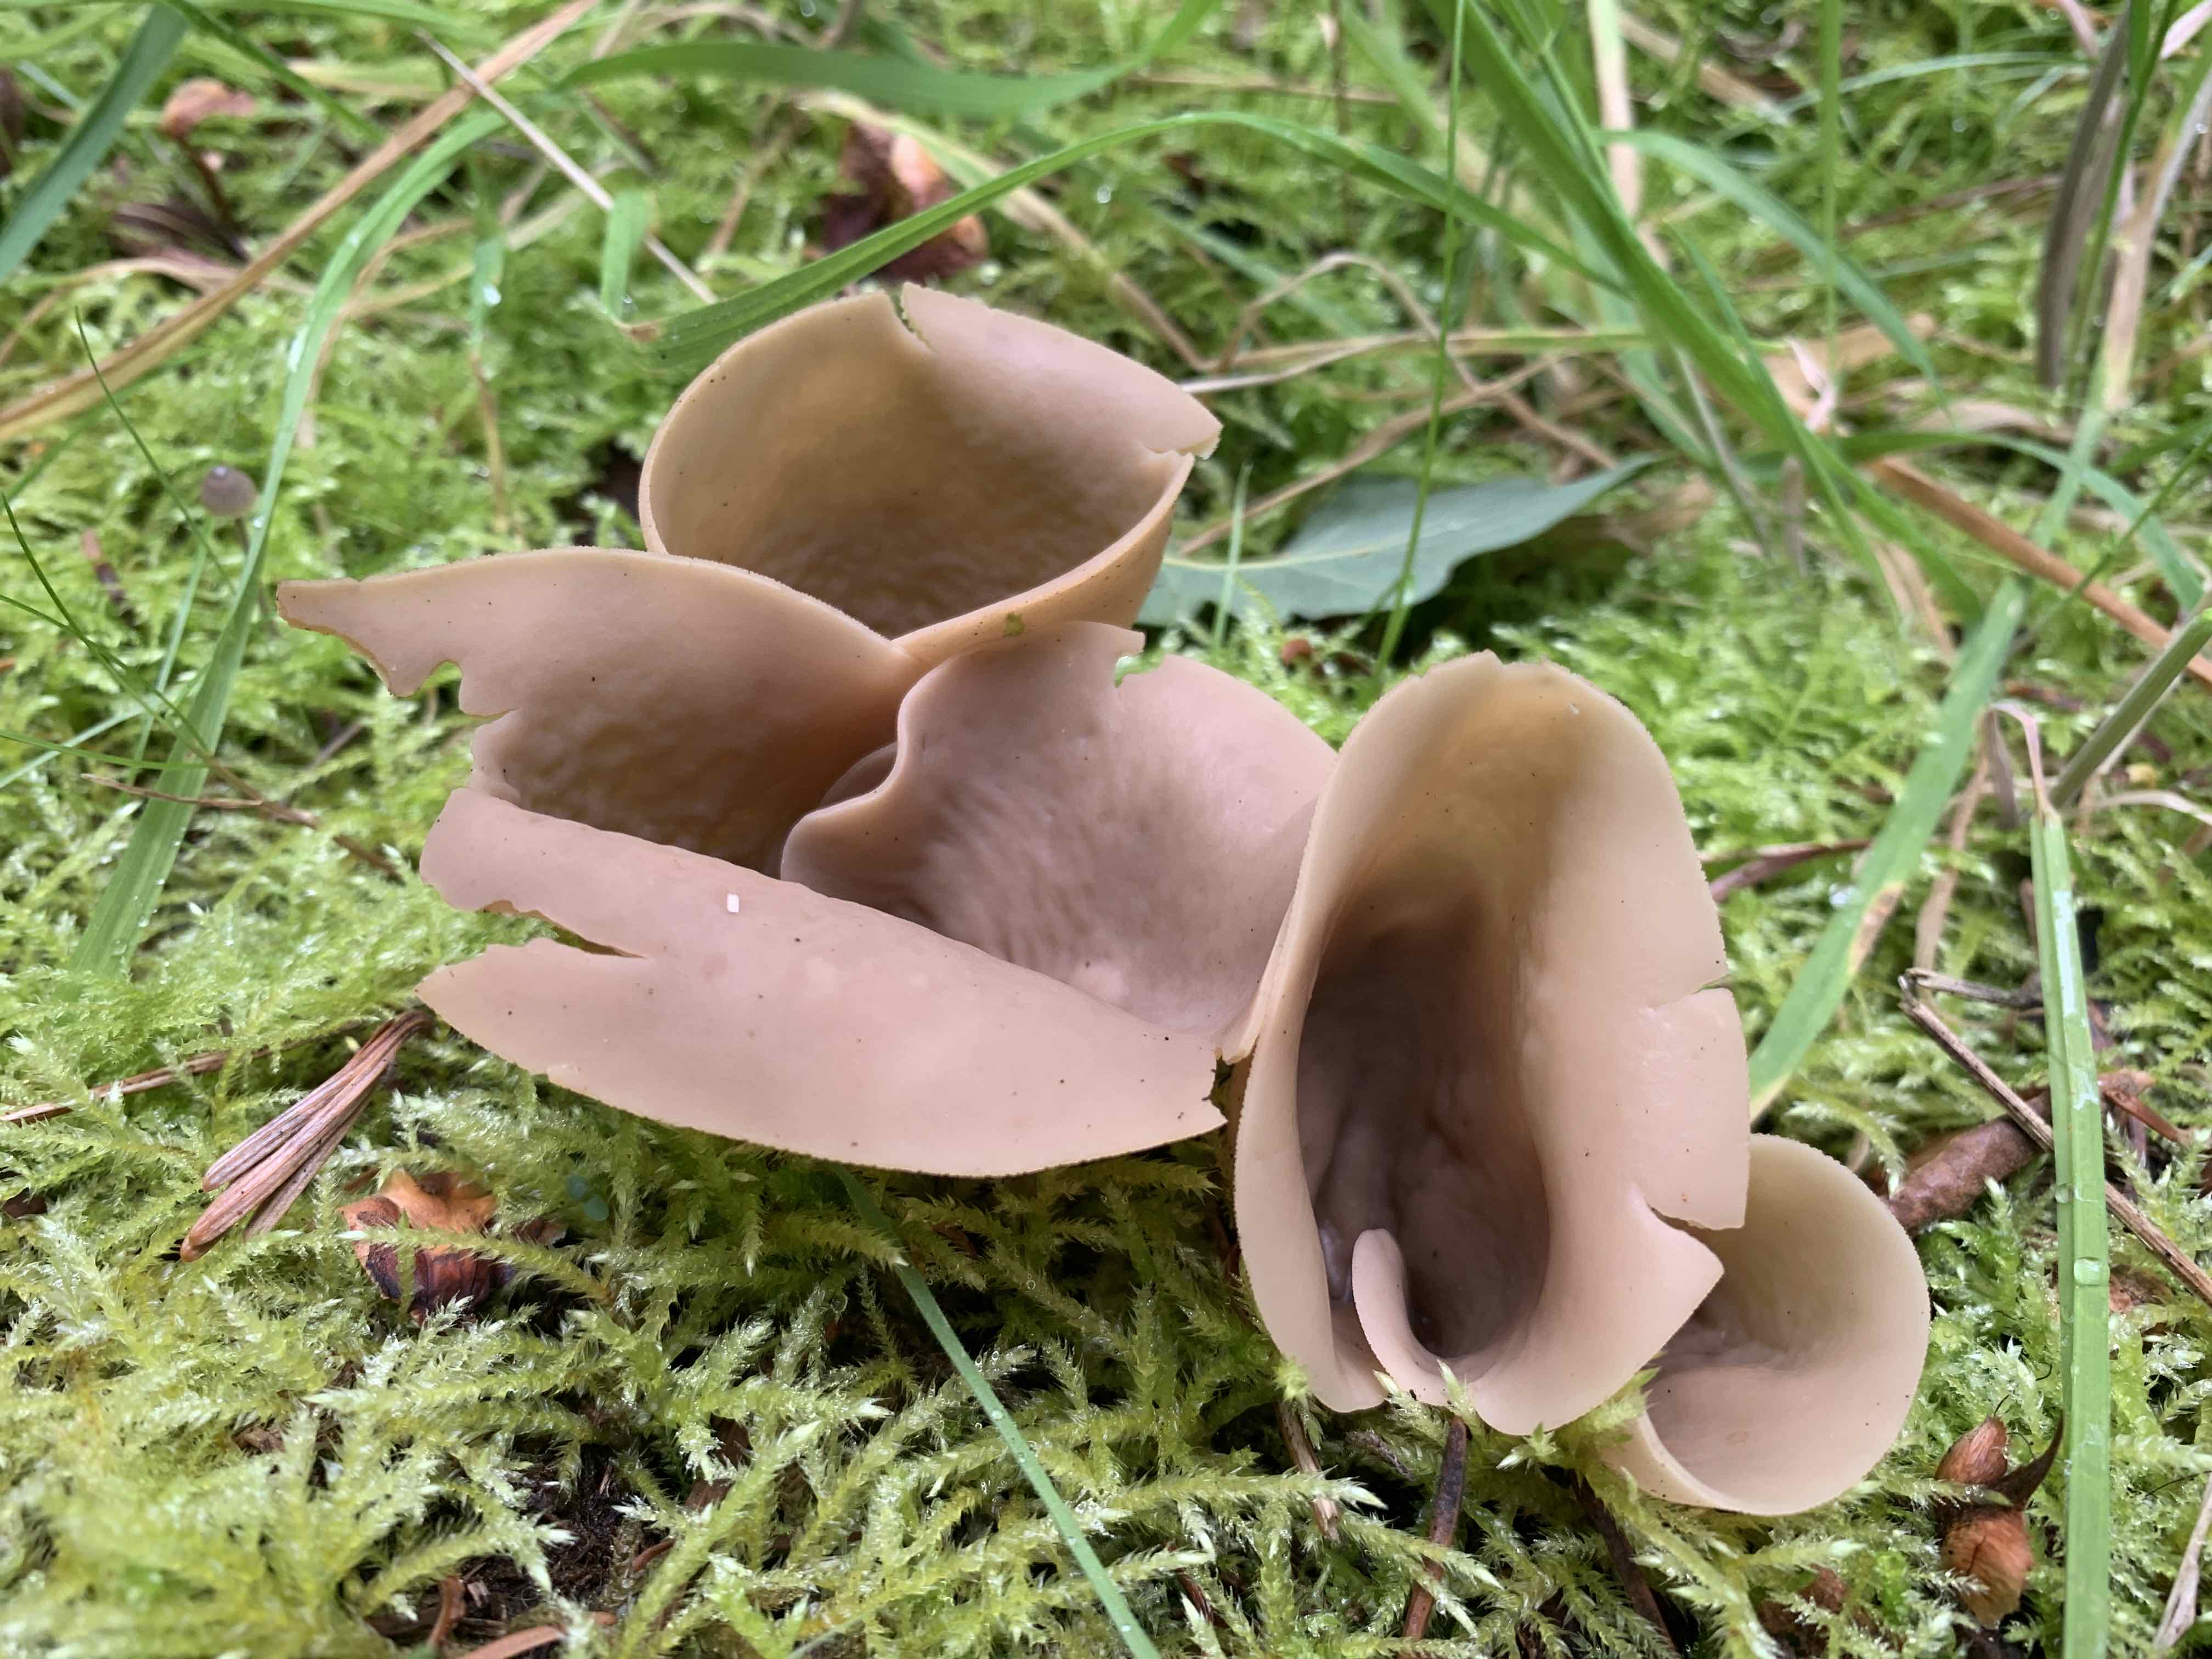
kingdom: Fungi
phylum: Ascomycota
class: Pezizomycetes
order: Pezizales
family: Otideaceae
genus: Otidea
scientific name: Otidea leporina
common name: hare-ørebæger
